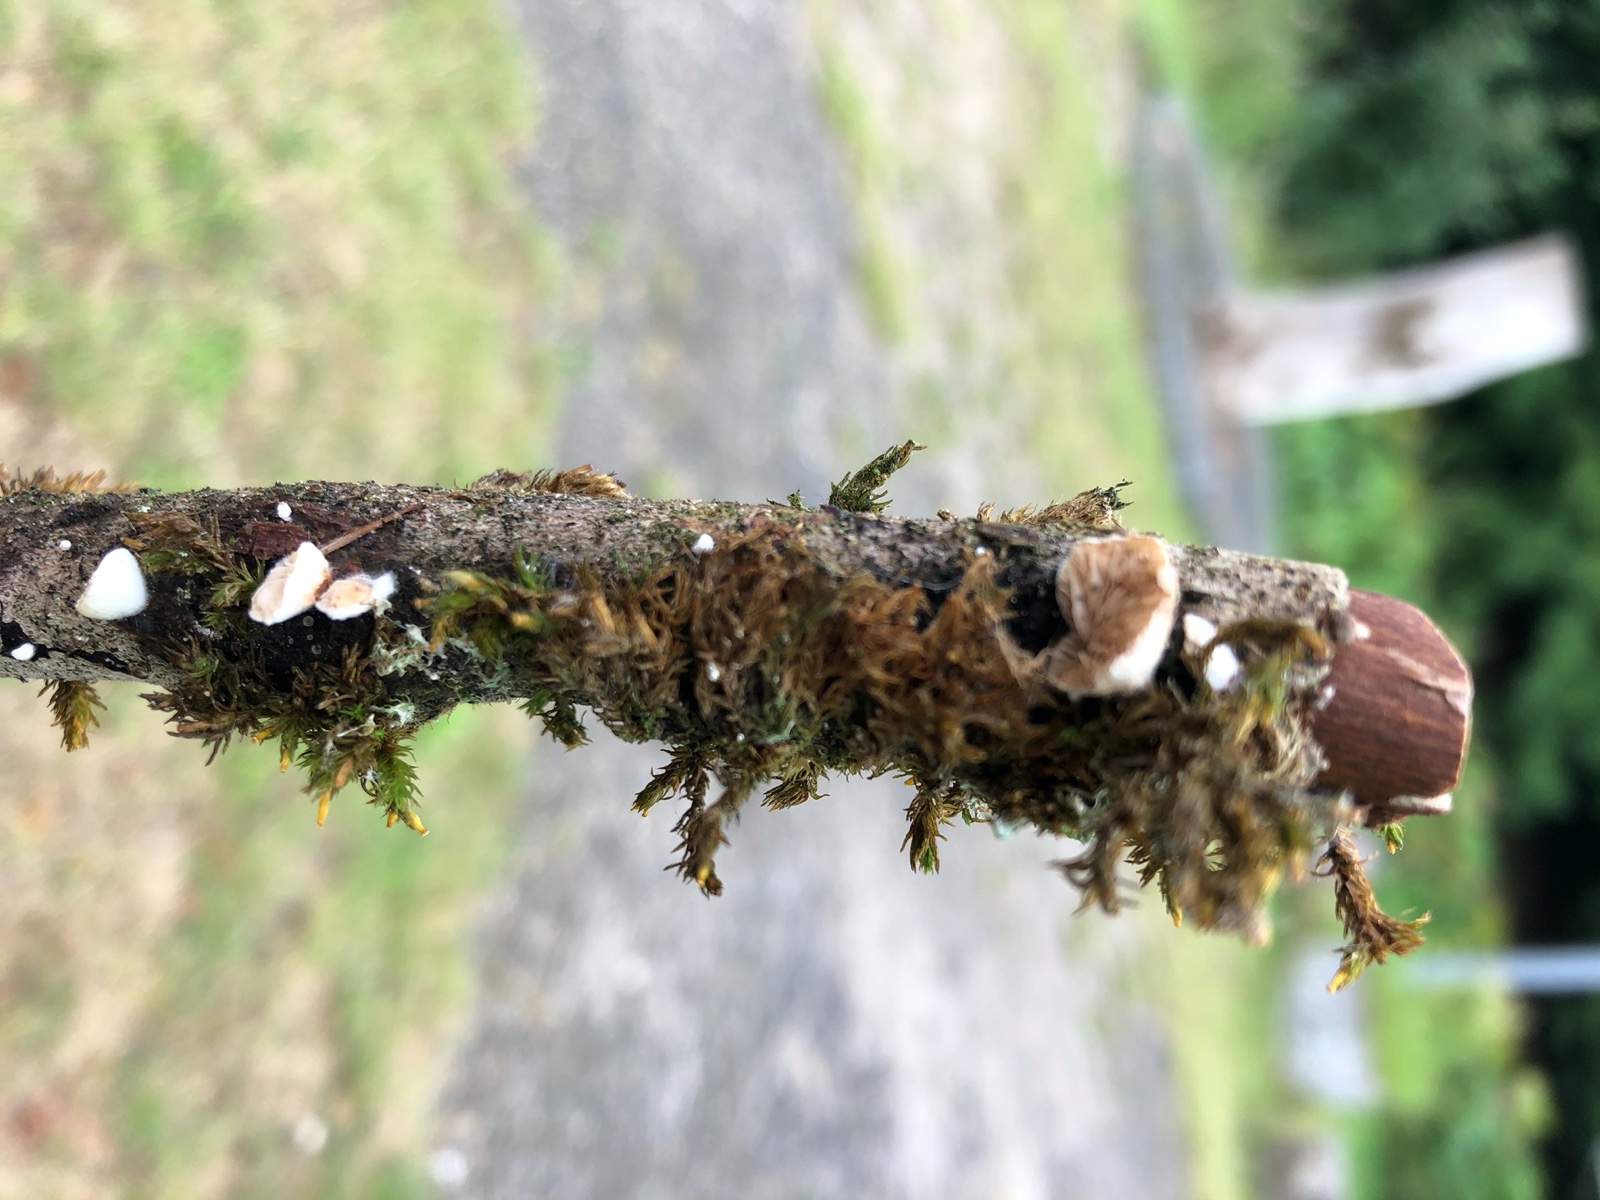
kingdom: Fungi
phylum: Basidiomycota
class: Agaricomycetes
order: Agaricales
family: Crepidotaceae
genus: Crepidotus
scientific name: Crepidotus cesatii
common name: almindelig muslingesvamp
